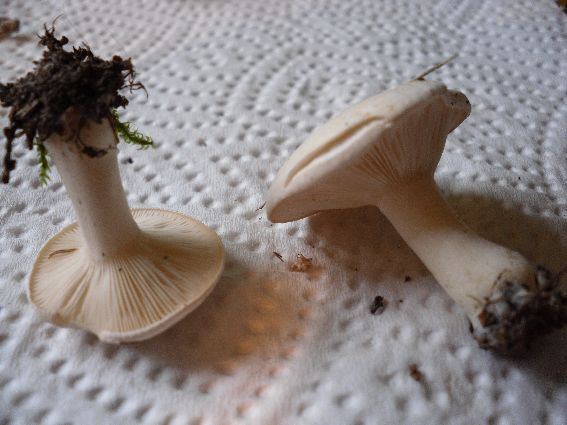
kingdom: Fungi
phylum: Basidiomycota
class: Agaricomycetes
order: Agaricales
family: Entolomataceae
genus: Clitopilus
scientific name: Clitopilus prunulus
